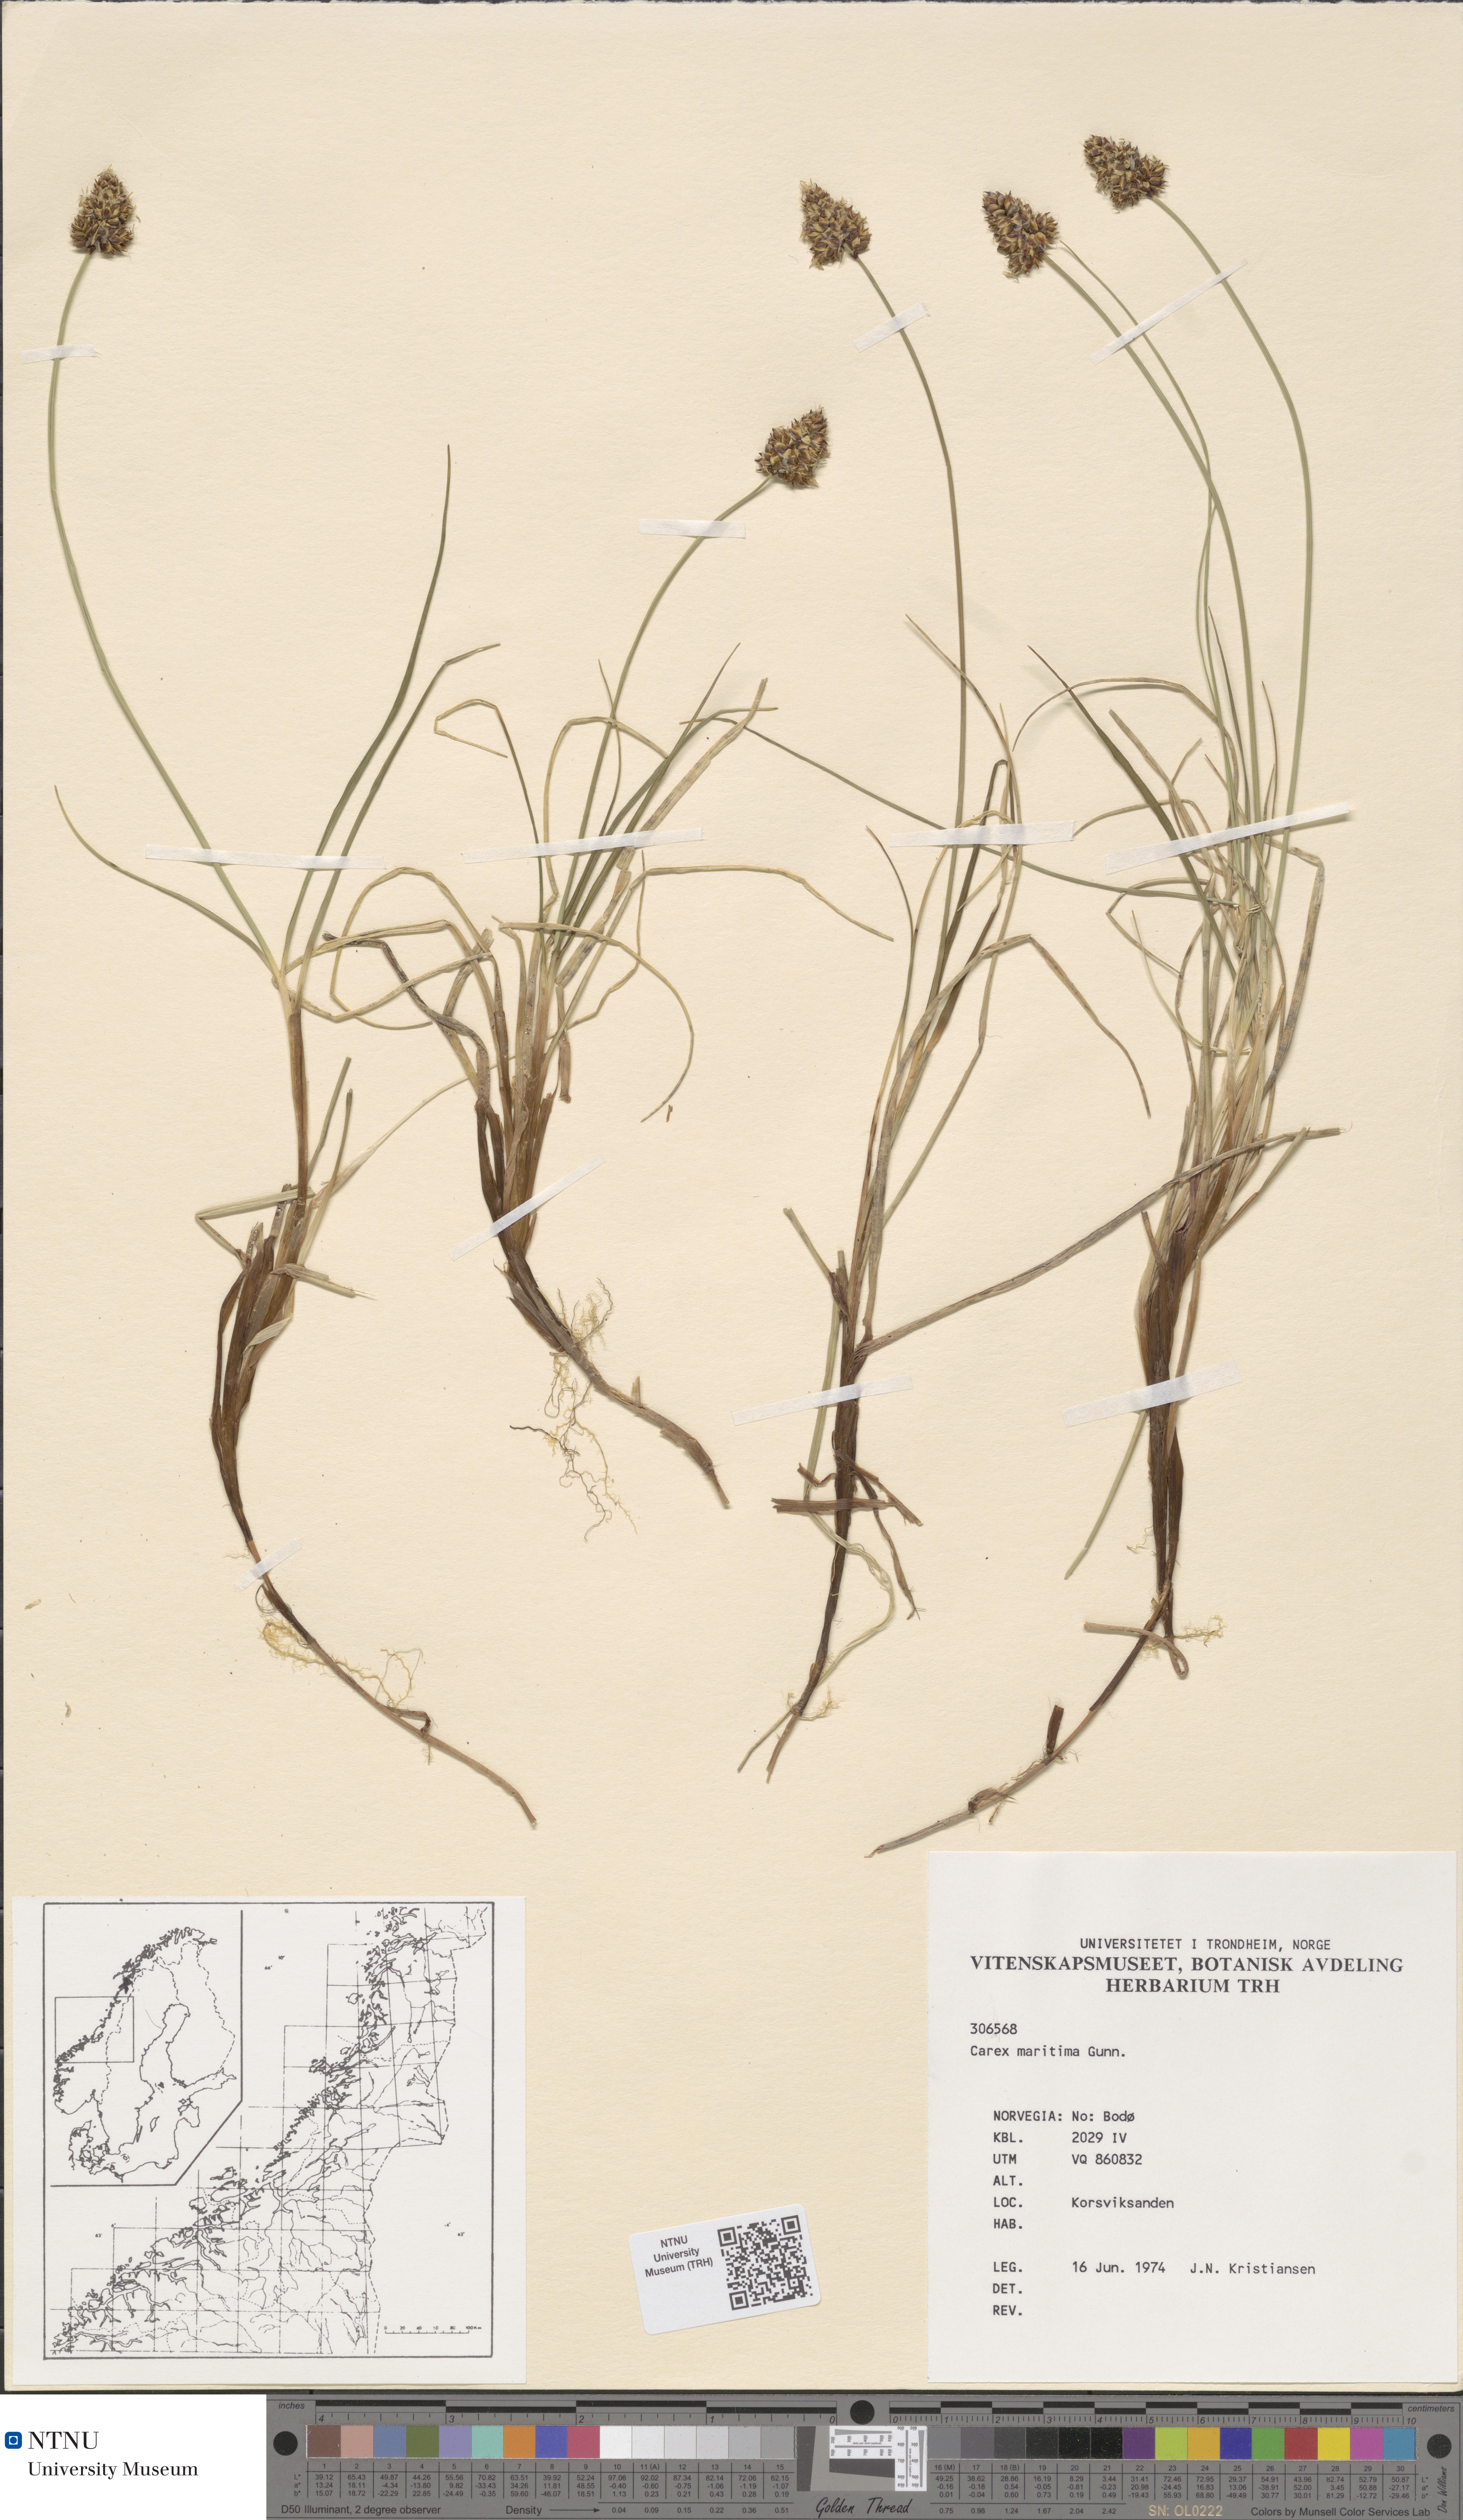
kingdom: Plantae
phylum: Tracheophyta
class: Liliopsida
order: Poales
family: Cyperaceae
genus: Carex
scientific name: Carex maritima
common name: Curved sedge
